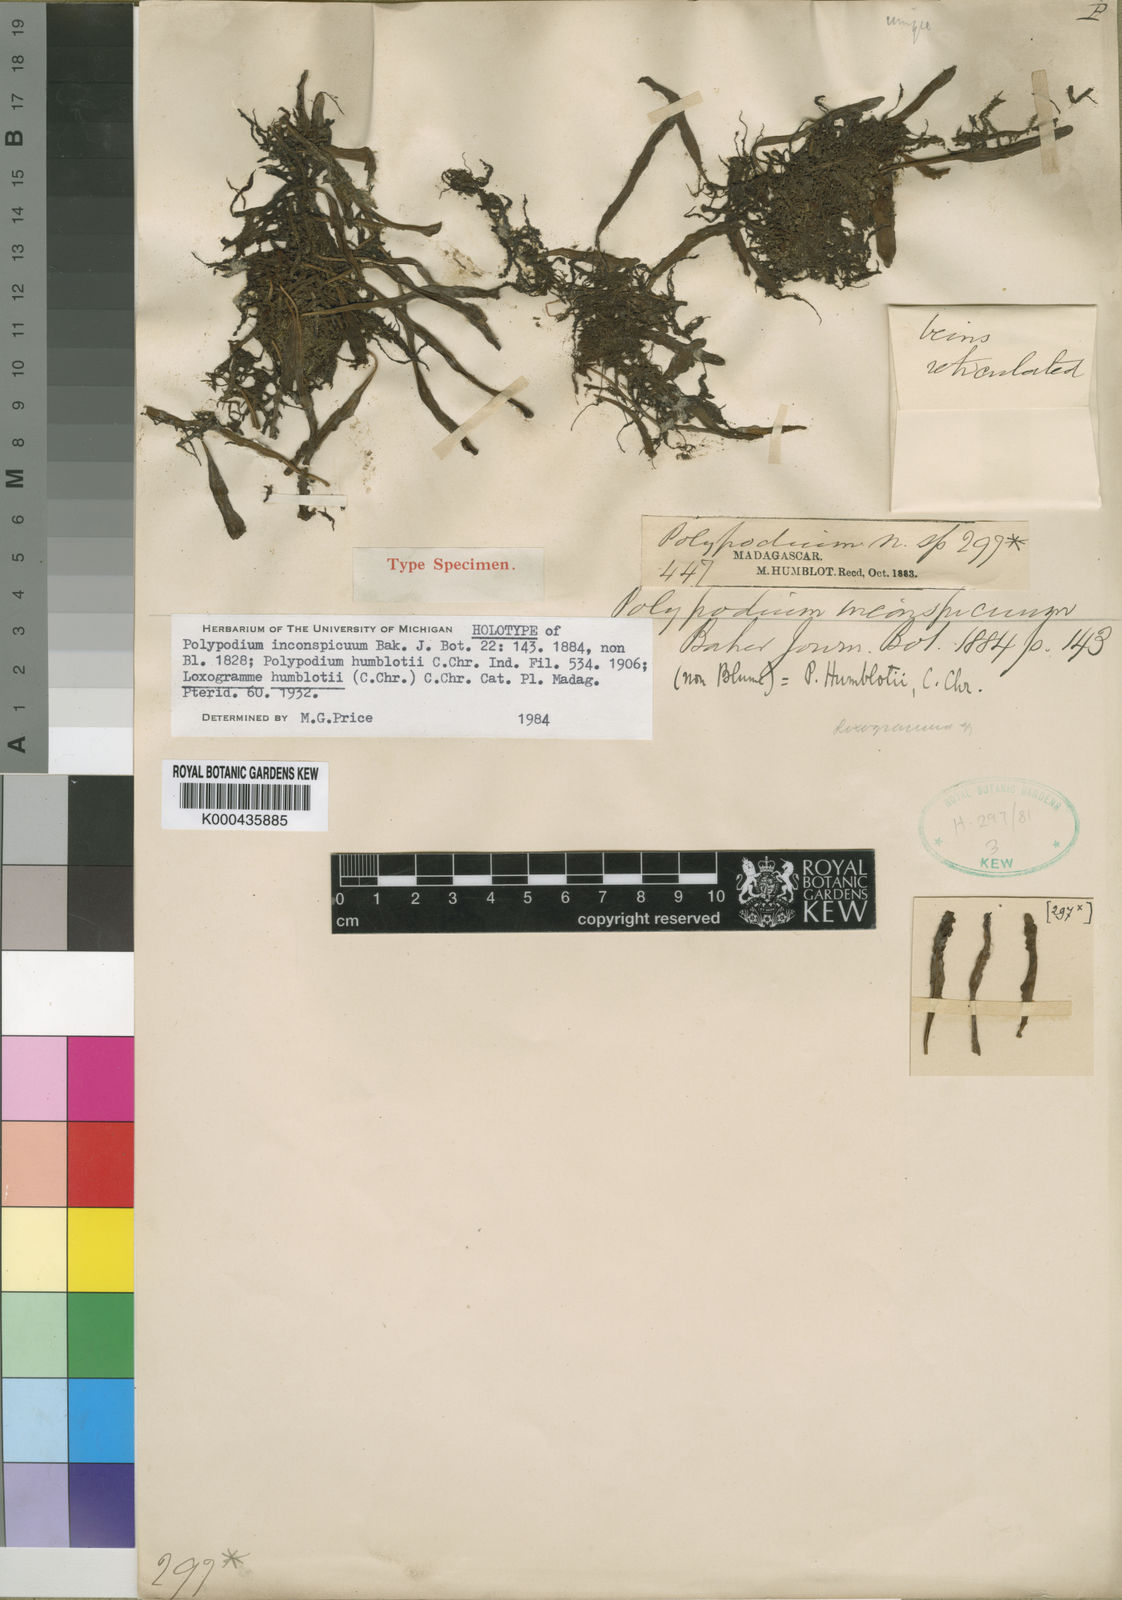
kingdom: Plantae
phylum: Tracheophyta
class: Polypodiopsida
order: Polypodiales
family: Polypodiaceae
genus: Loxogramme
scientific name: Loxogramme humblotii
